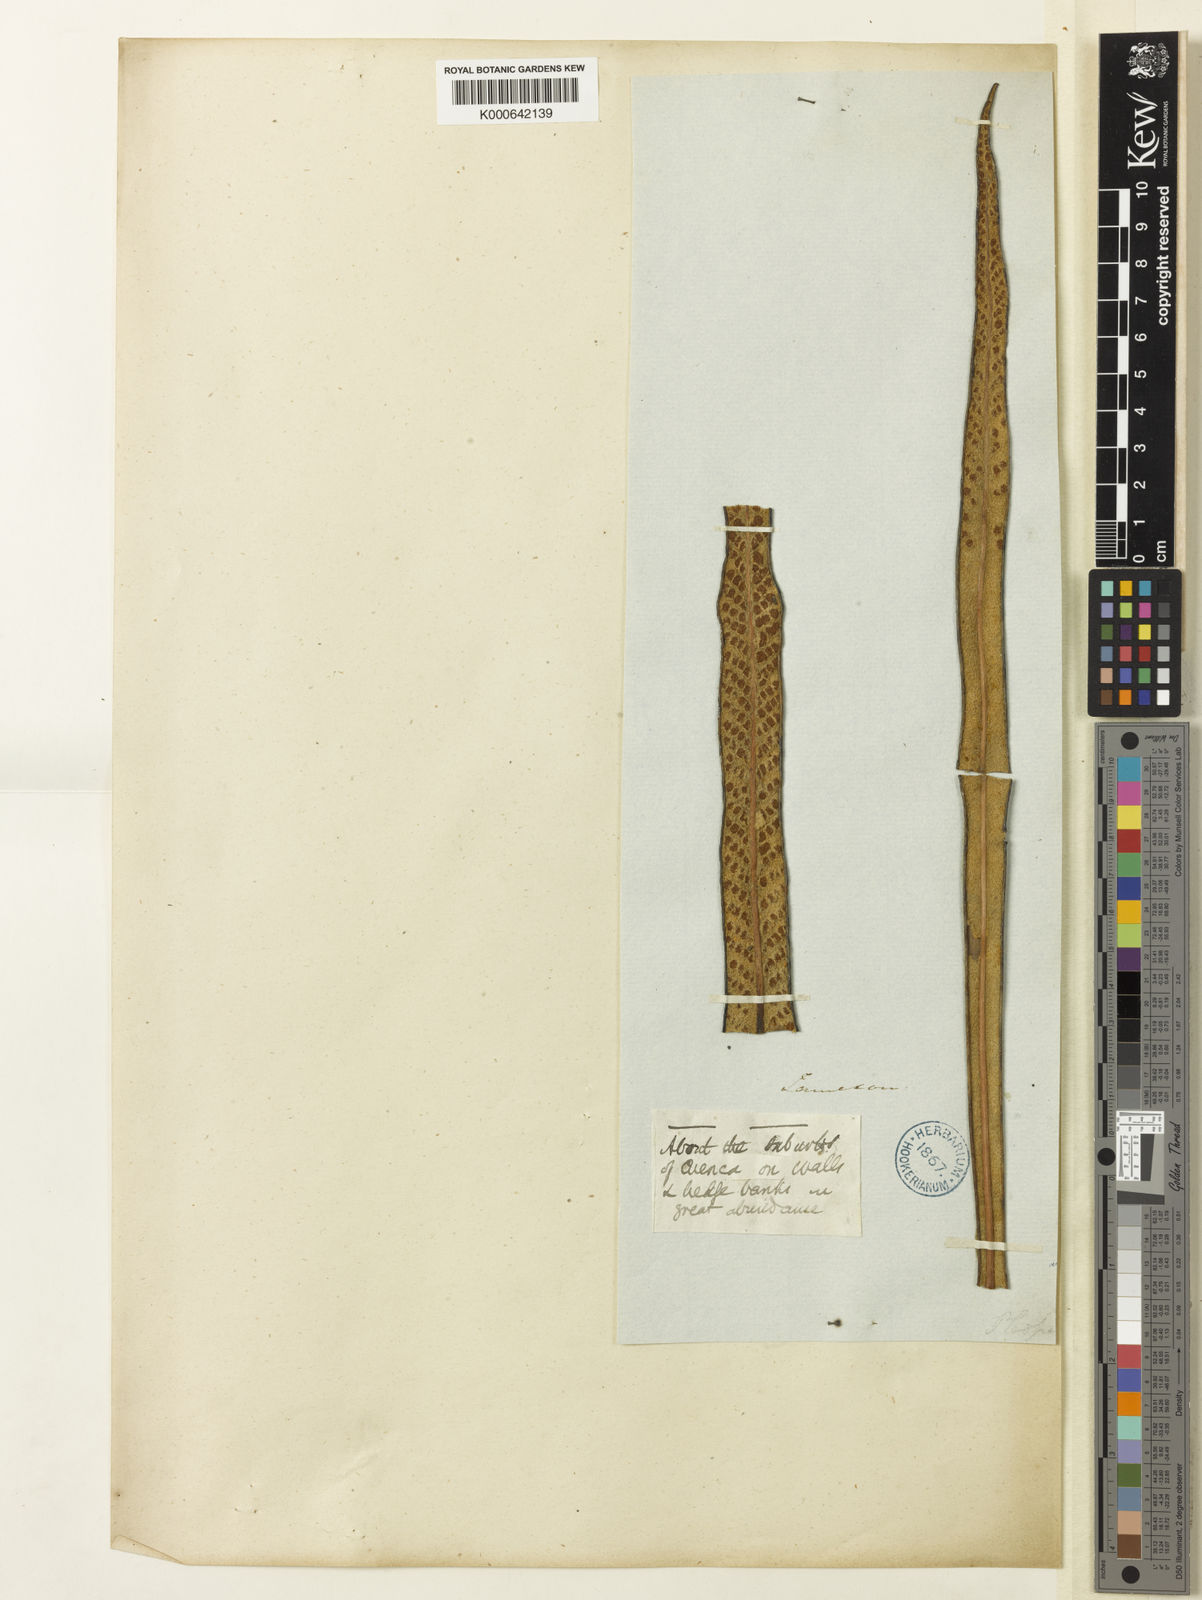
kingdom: Plantae
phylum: Tracheophyta
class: Polypodiopsida
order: Polypodiales
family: Polypodiaceae
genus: Niphidium
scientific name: Niphidium longifolium
